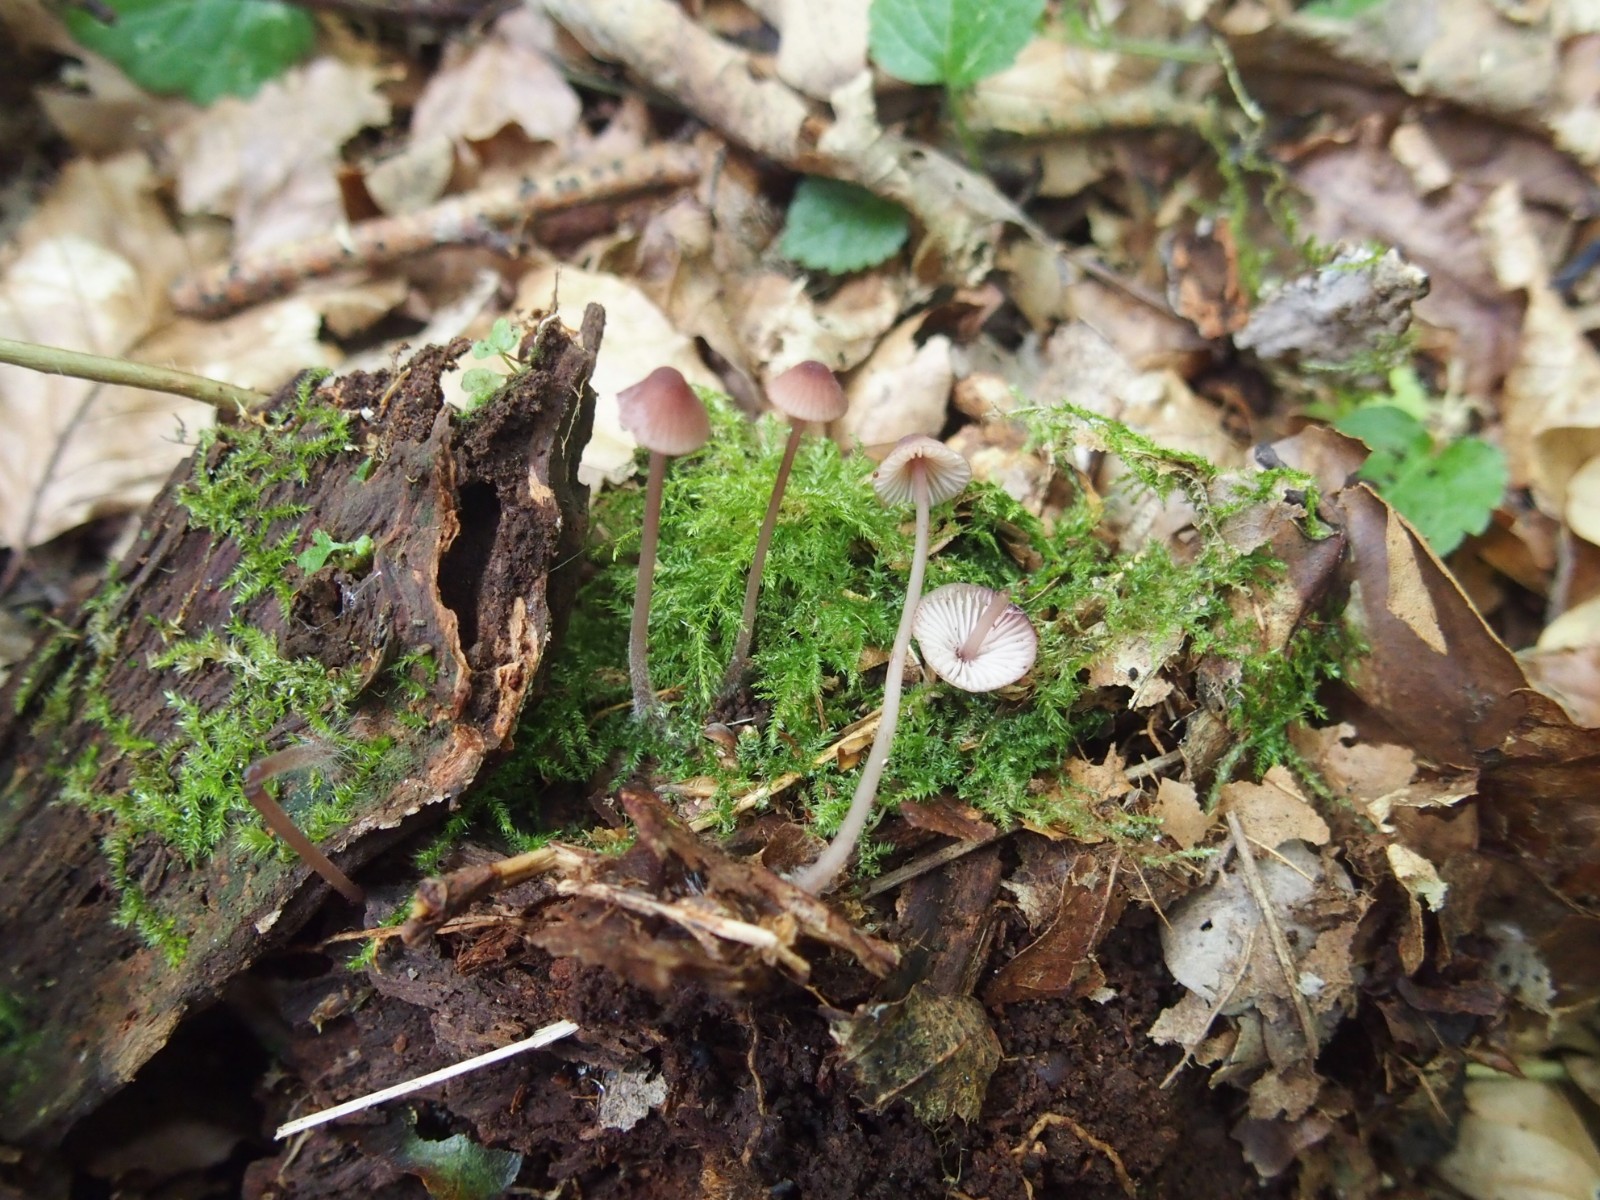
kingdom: Fungi
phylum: Basidiomycota
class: Agaricomycetes
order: Agaricales
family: Mycenaceae
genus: Mycena
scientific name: Mycena sanguinolenta
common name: rødmælket huesvamp
